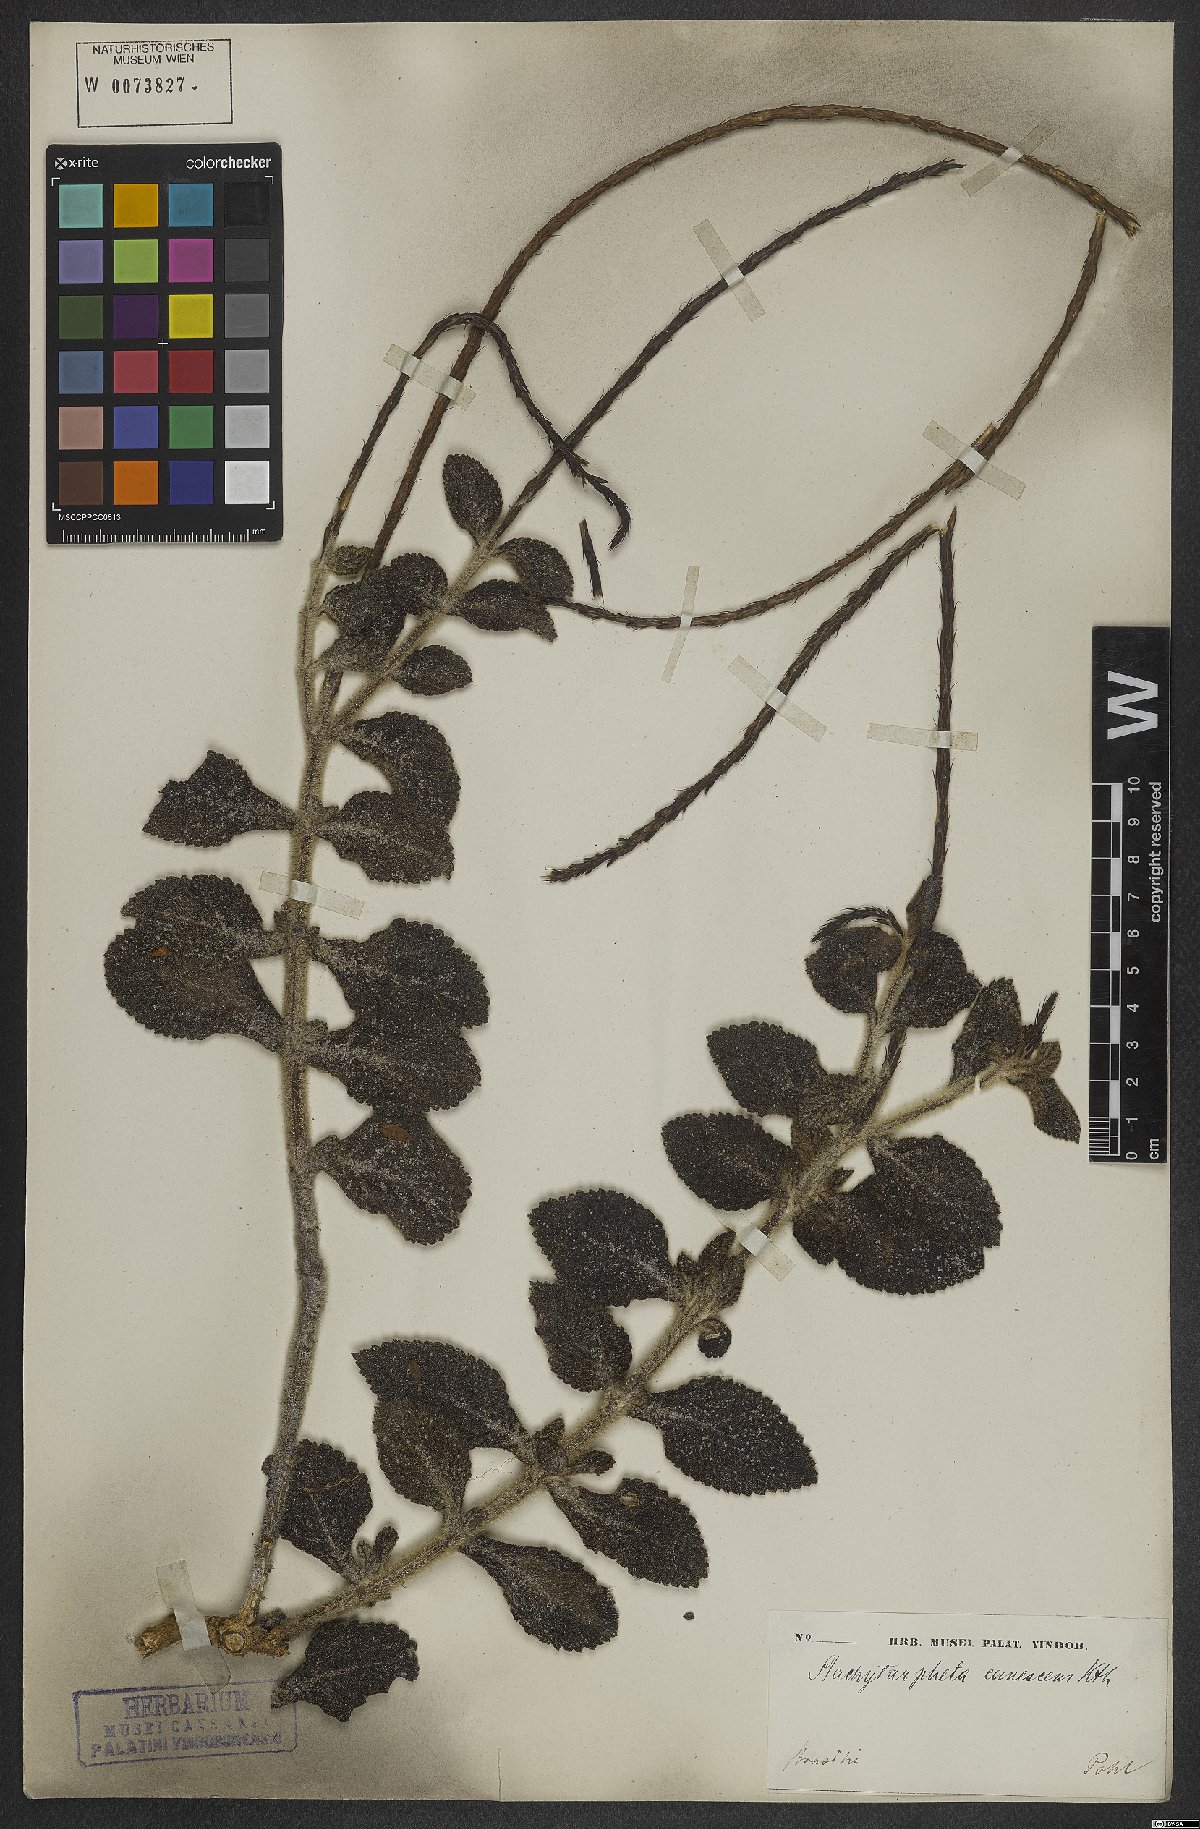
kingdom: Plantae
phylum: Tracheophyta
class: Magnoliopsida
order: Lamiales
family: Verbenaceae
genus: Stachytarpheta
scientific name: Stachytarpheta canescens
